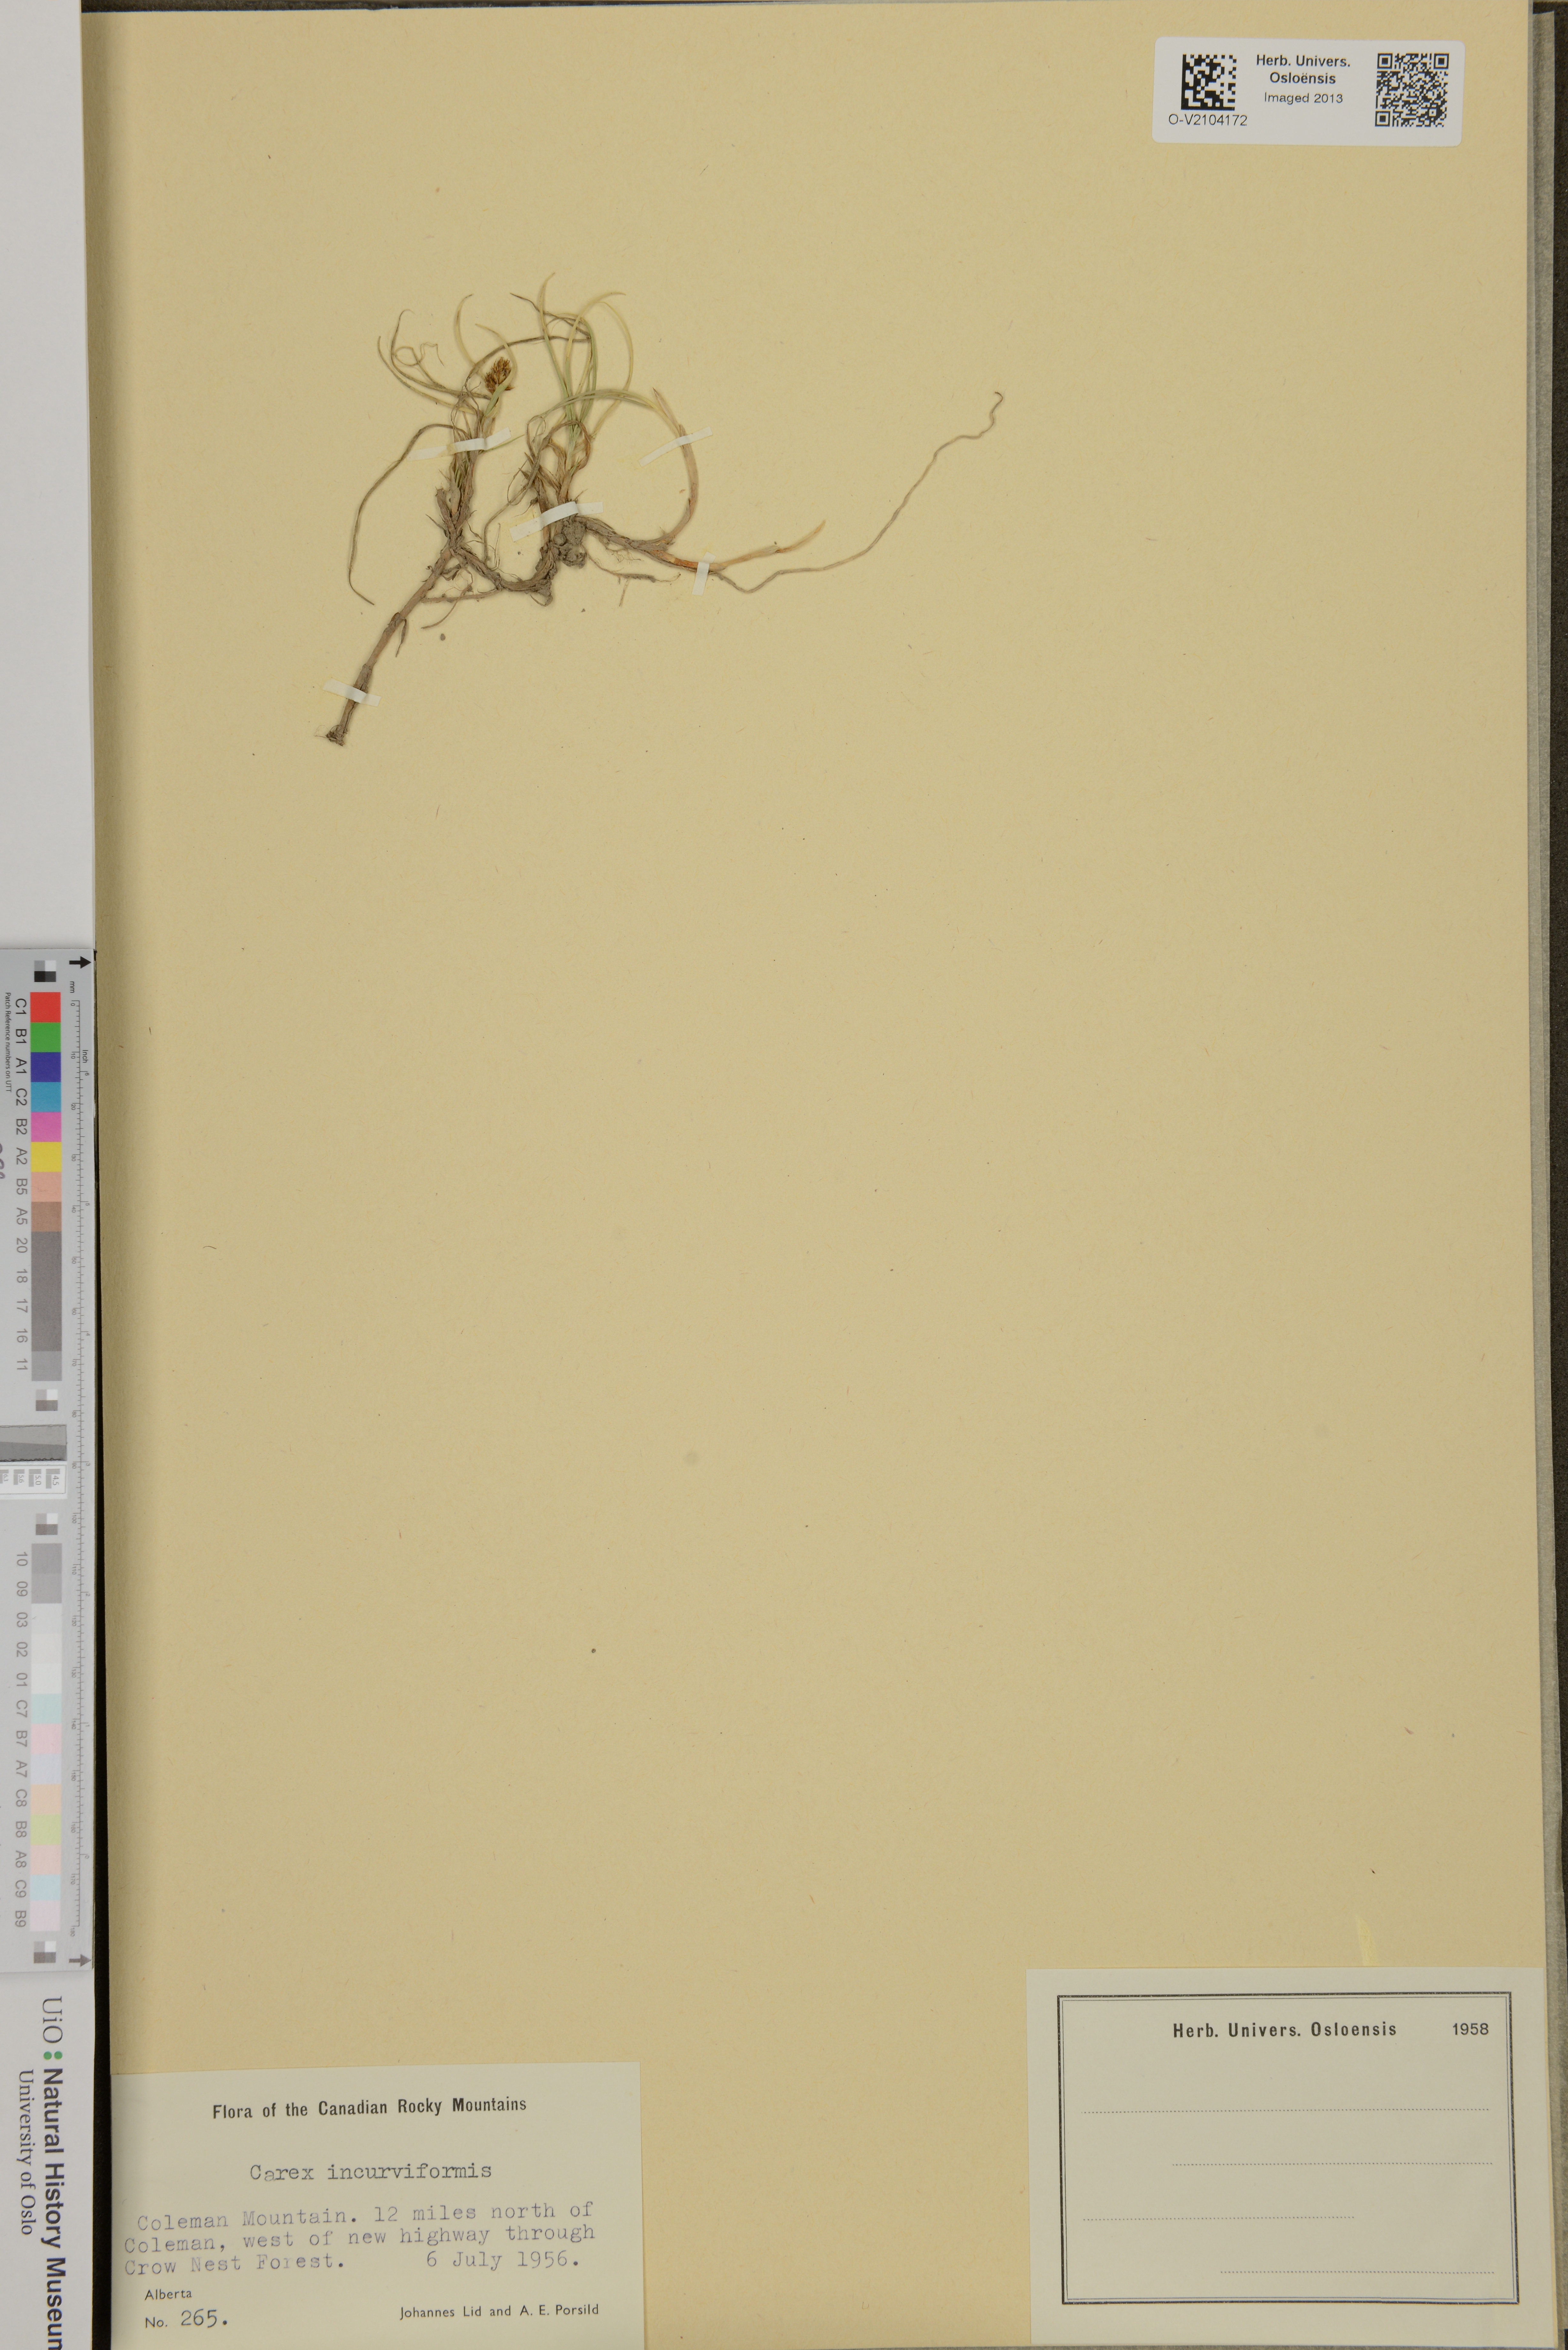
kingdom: Plantae
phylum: Tracheophyta
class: Liliopsida
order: Poales
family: Cyperaceae
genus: Carex
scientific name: Carex incurviformis
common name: Coastal sand sedge
